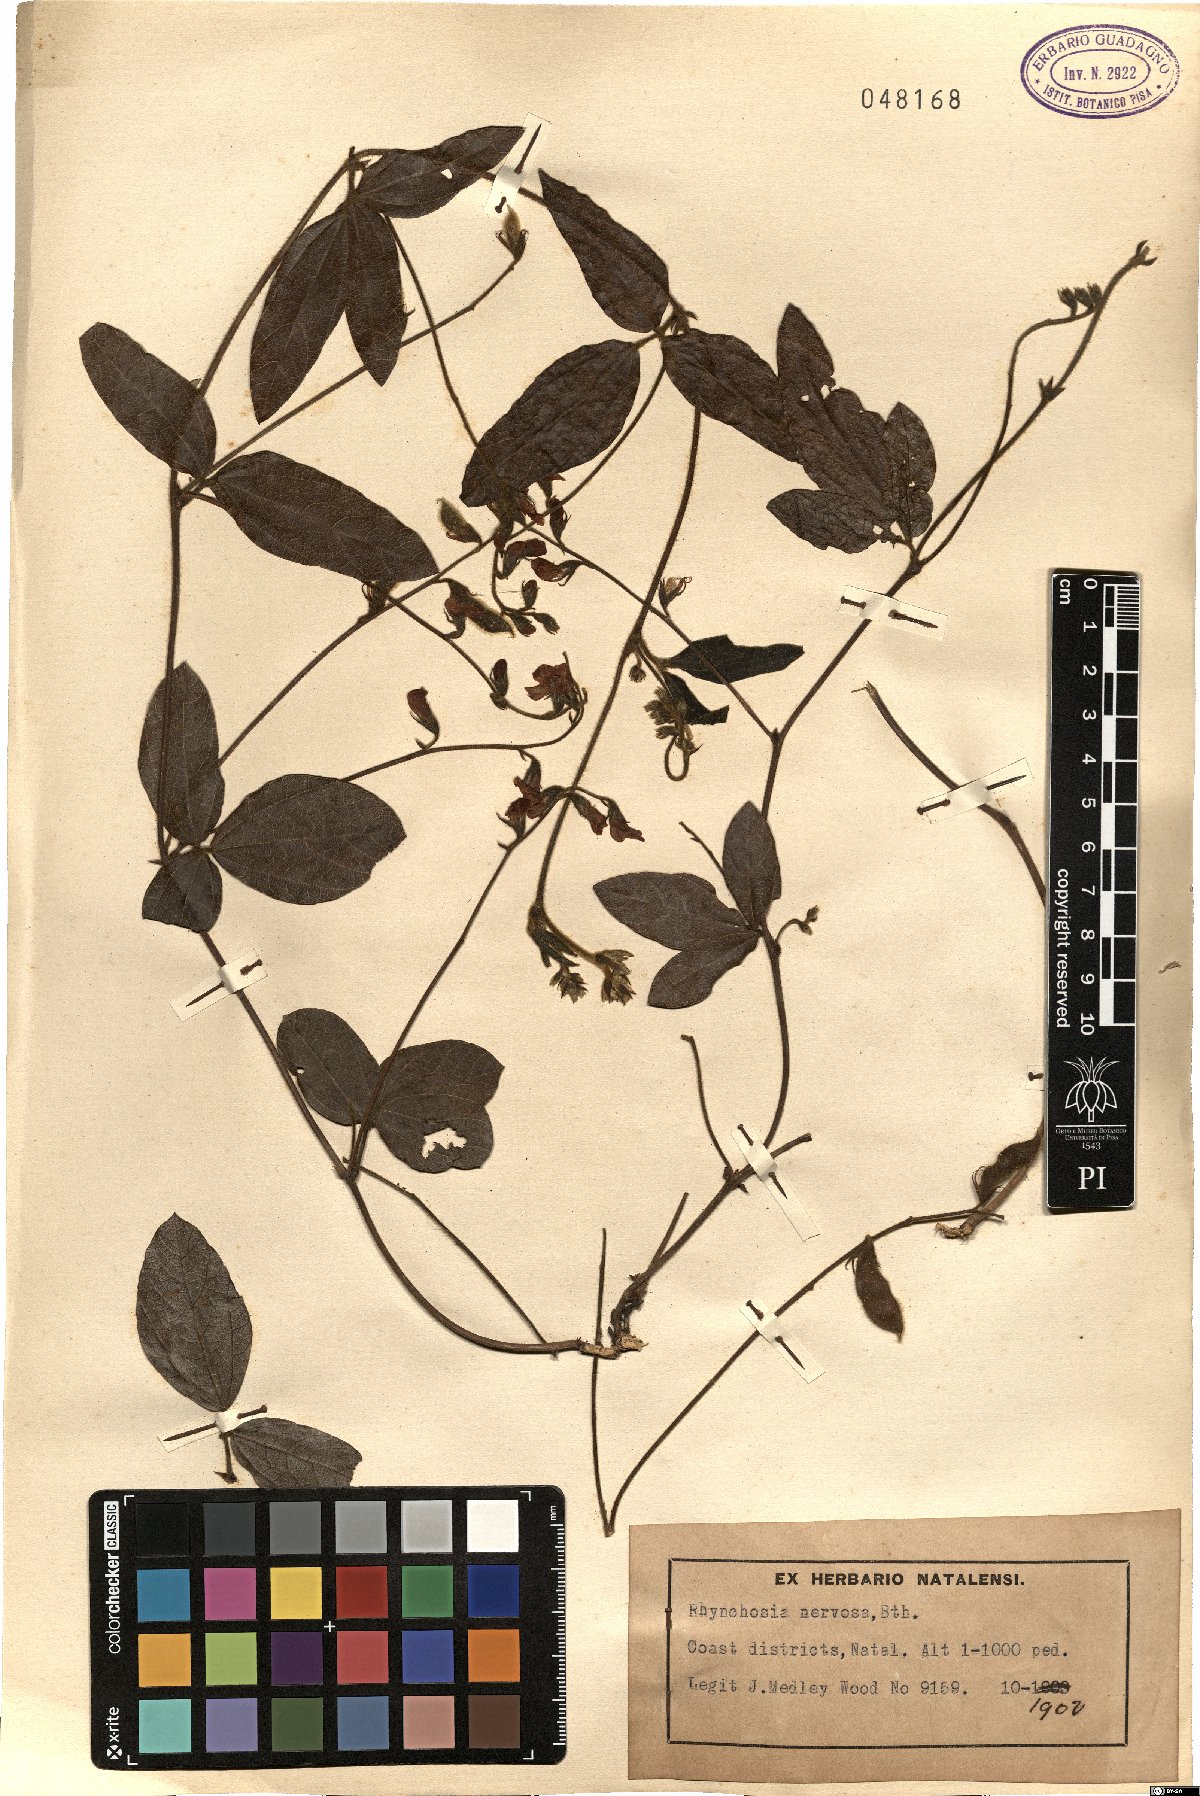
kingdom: Plantae
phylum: Tracheophyta
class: Magnoliopsida
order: Fabales
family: Fabaceae
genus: Rhynchosia
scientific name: Rhynchosia nervosa
